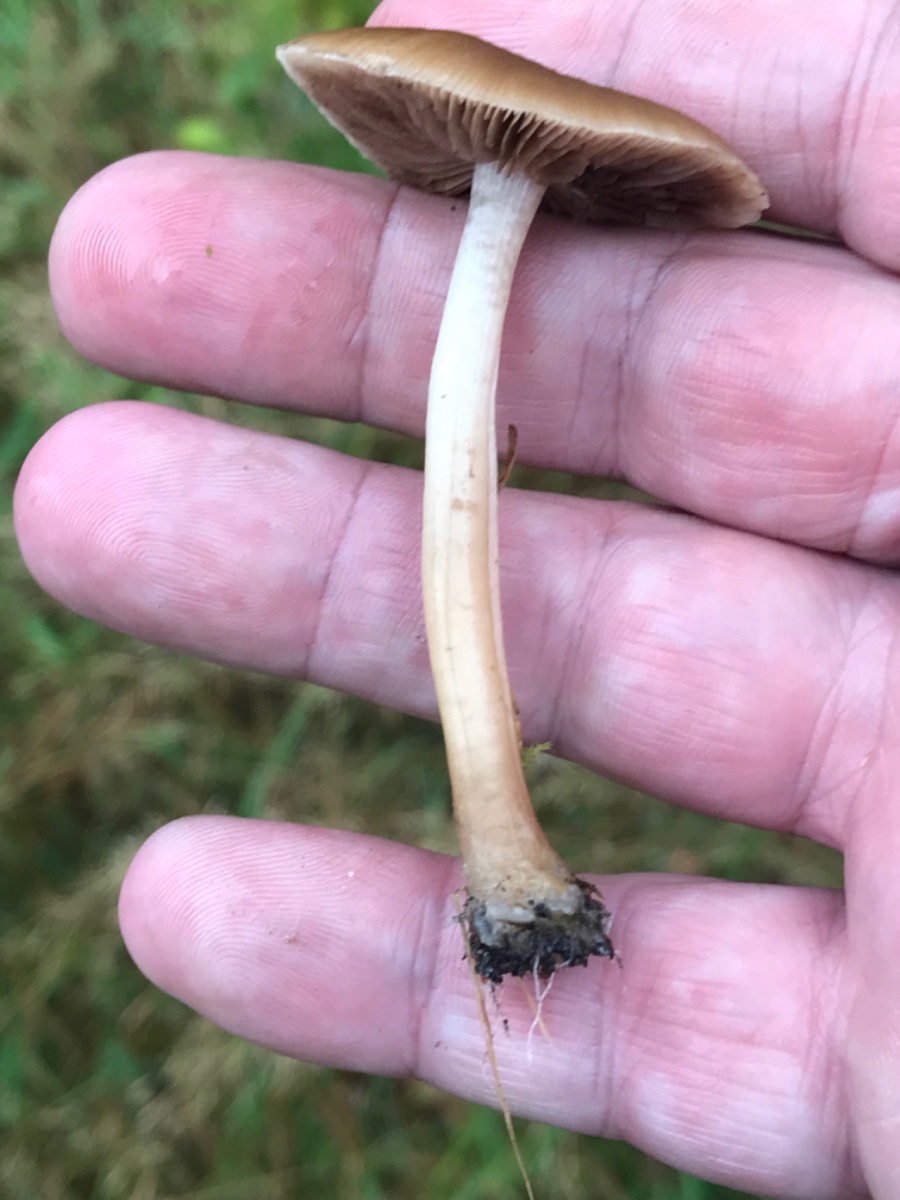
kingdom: Fungi
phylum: Basidiomycota
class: Agaricomycetes
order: Agaricales
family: Psathyrellaceae
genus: Psathyrella
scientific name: Psathyrella
